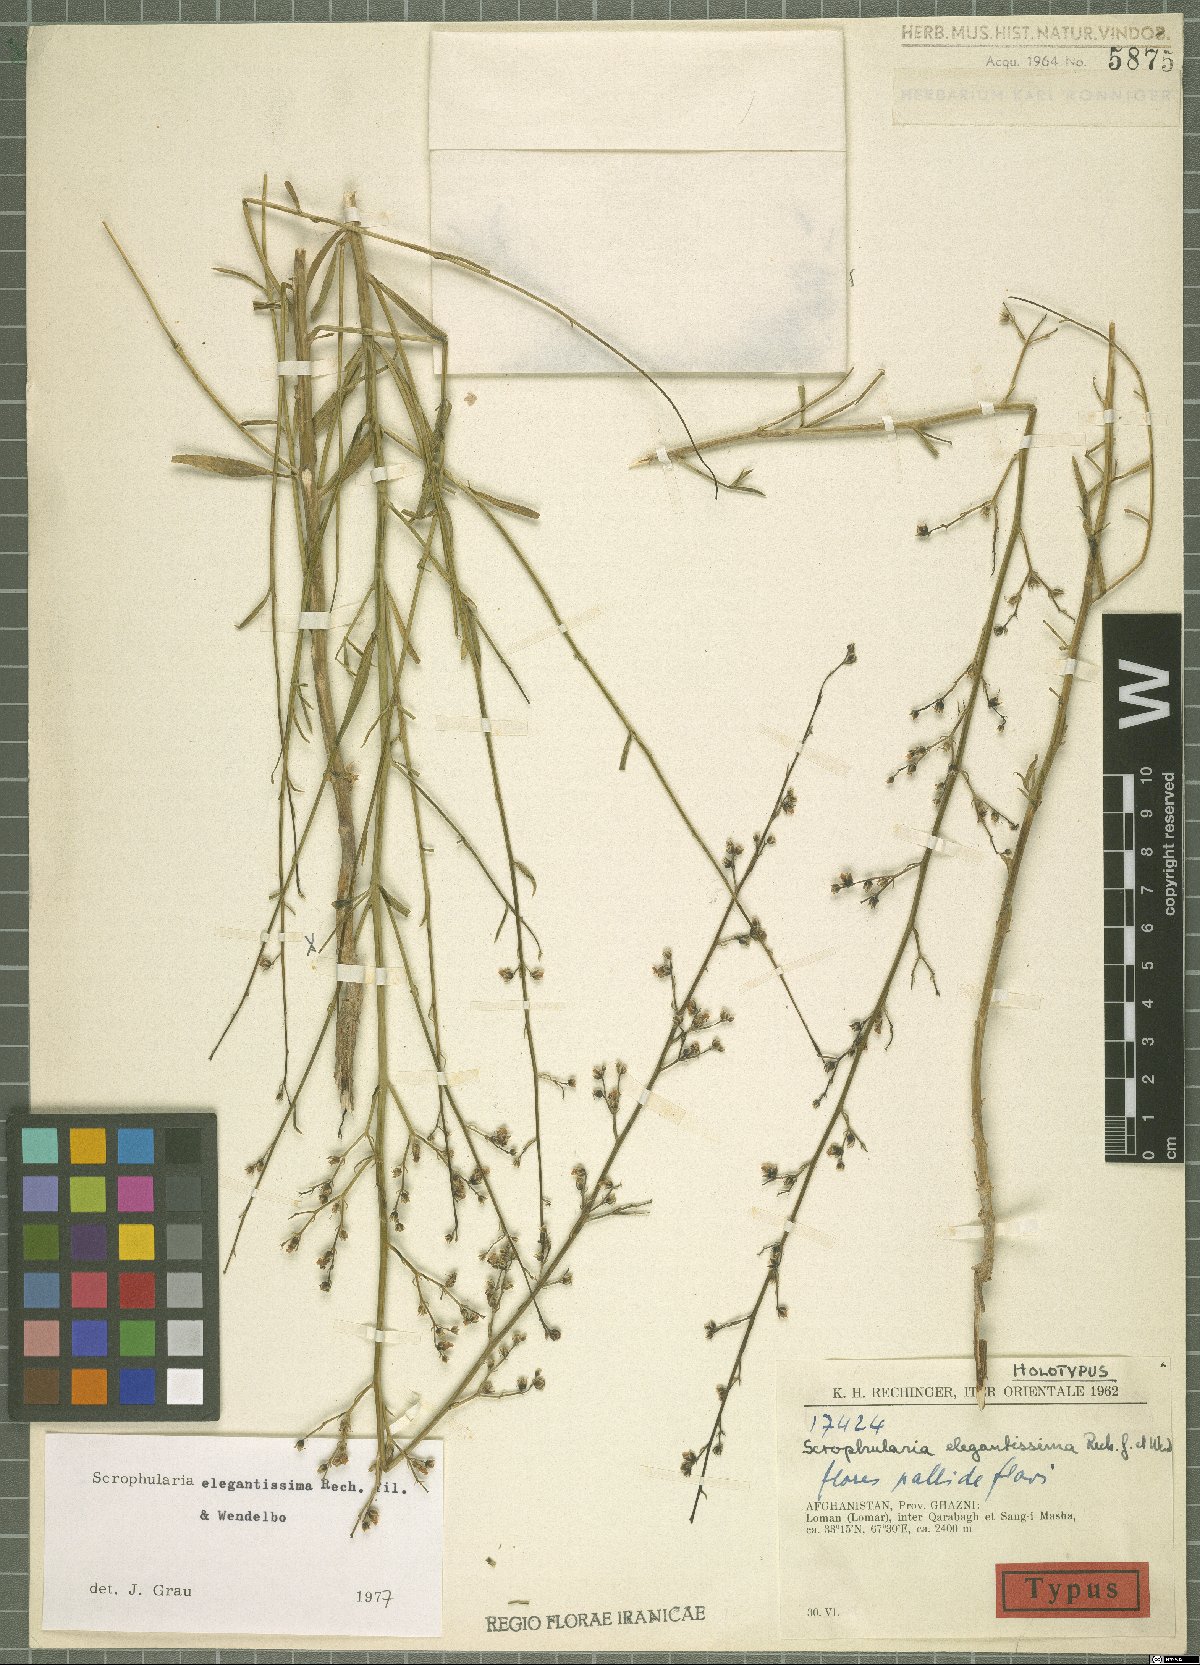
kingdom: Plantae
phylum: Tracheophyta
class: Magnoliopsida
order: Lamiales
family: Scrophulariaceae
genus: Scrophularia
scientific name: Scrophularia cabulica
